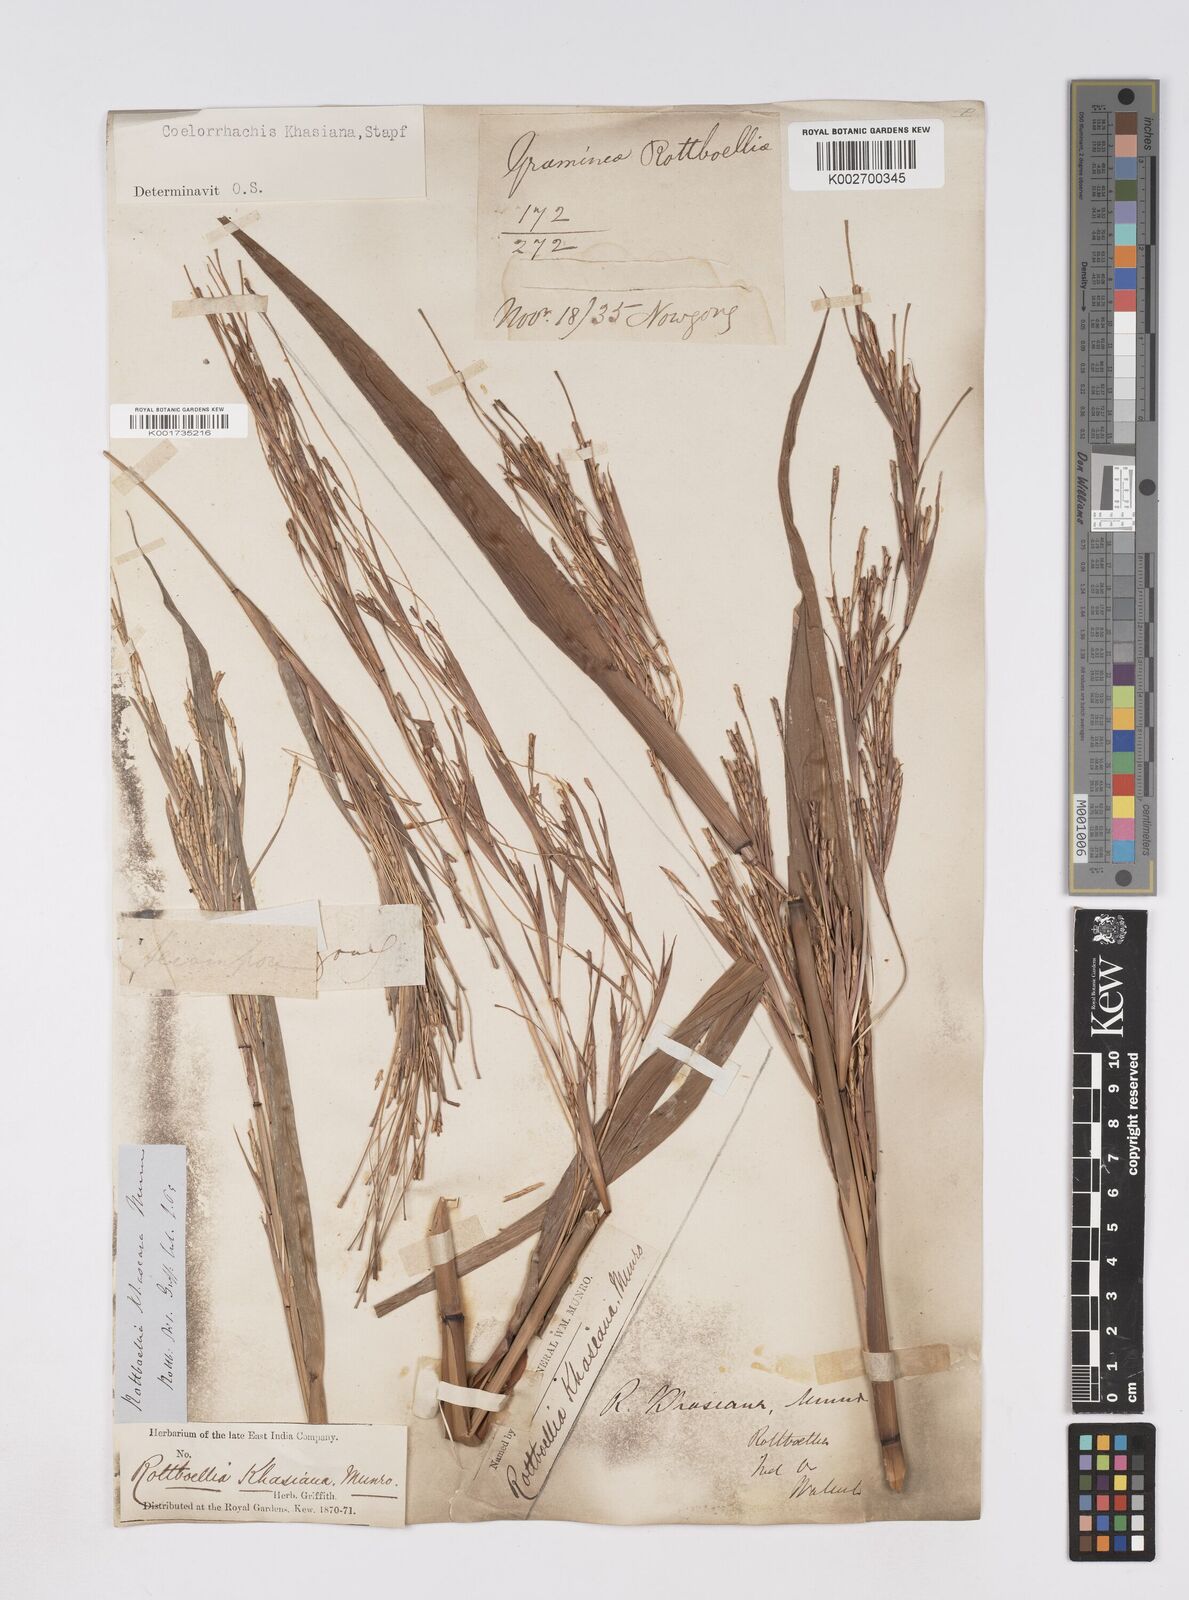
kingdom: Plantae
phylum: Tracheophyta
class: Liliopsida
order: Poales
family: Poaceae
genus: Rottboellia
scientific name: Rottboellia striata
